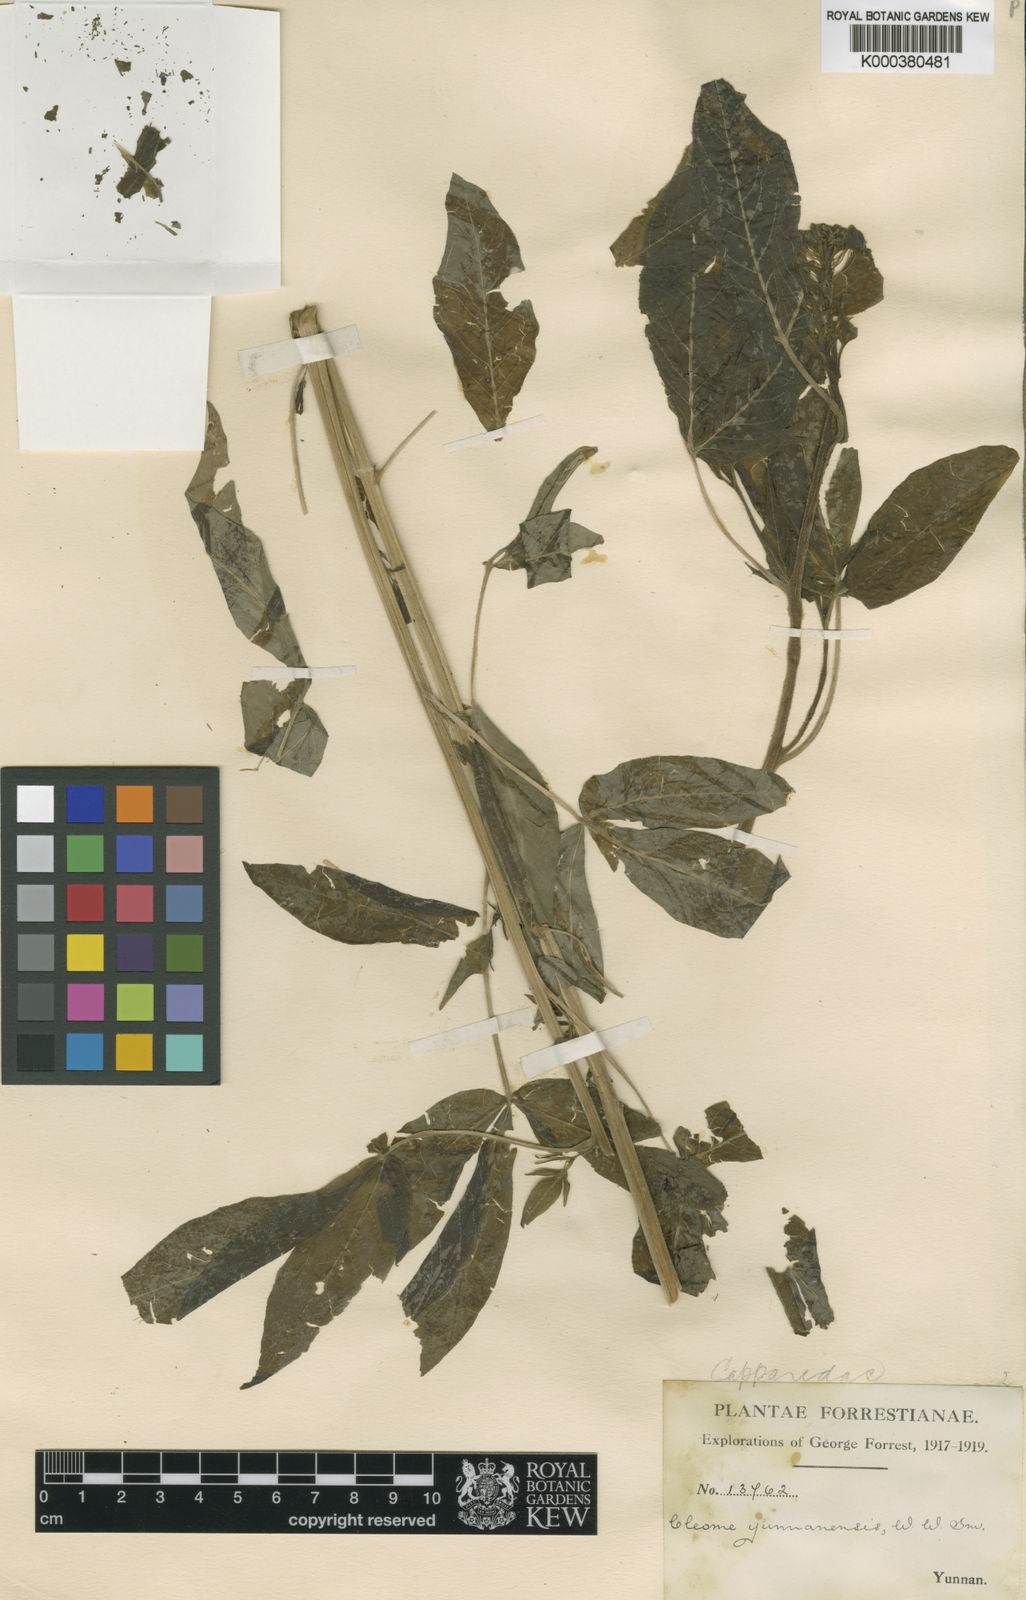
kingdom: Plantae
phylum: Tracheophyta
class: Magnoliopsida
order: Brassicales
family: Cleomaceae
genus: Cleome
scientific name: Cleome yunnanensis
